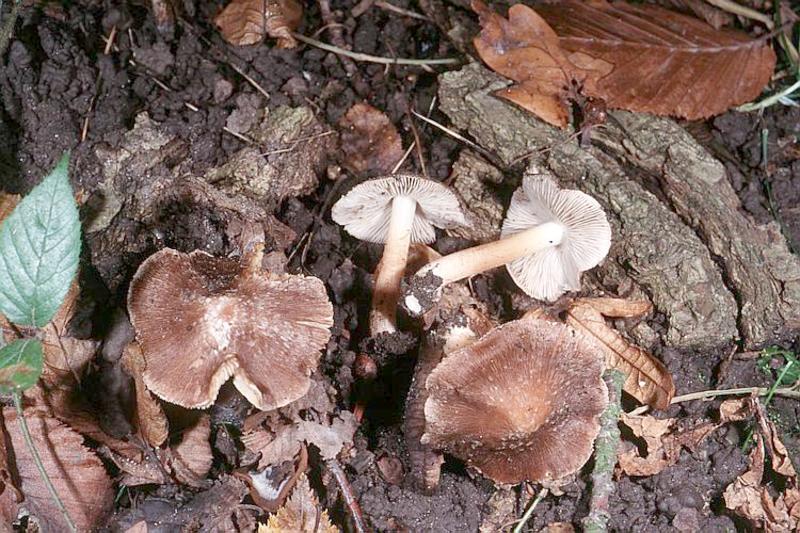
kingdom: Fungi
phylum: Basidiomycota
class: Agaricomycetes
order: Agaricales
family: Inocybaceae
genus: Inosperma
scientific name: Inosperma maculatum
